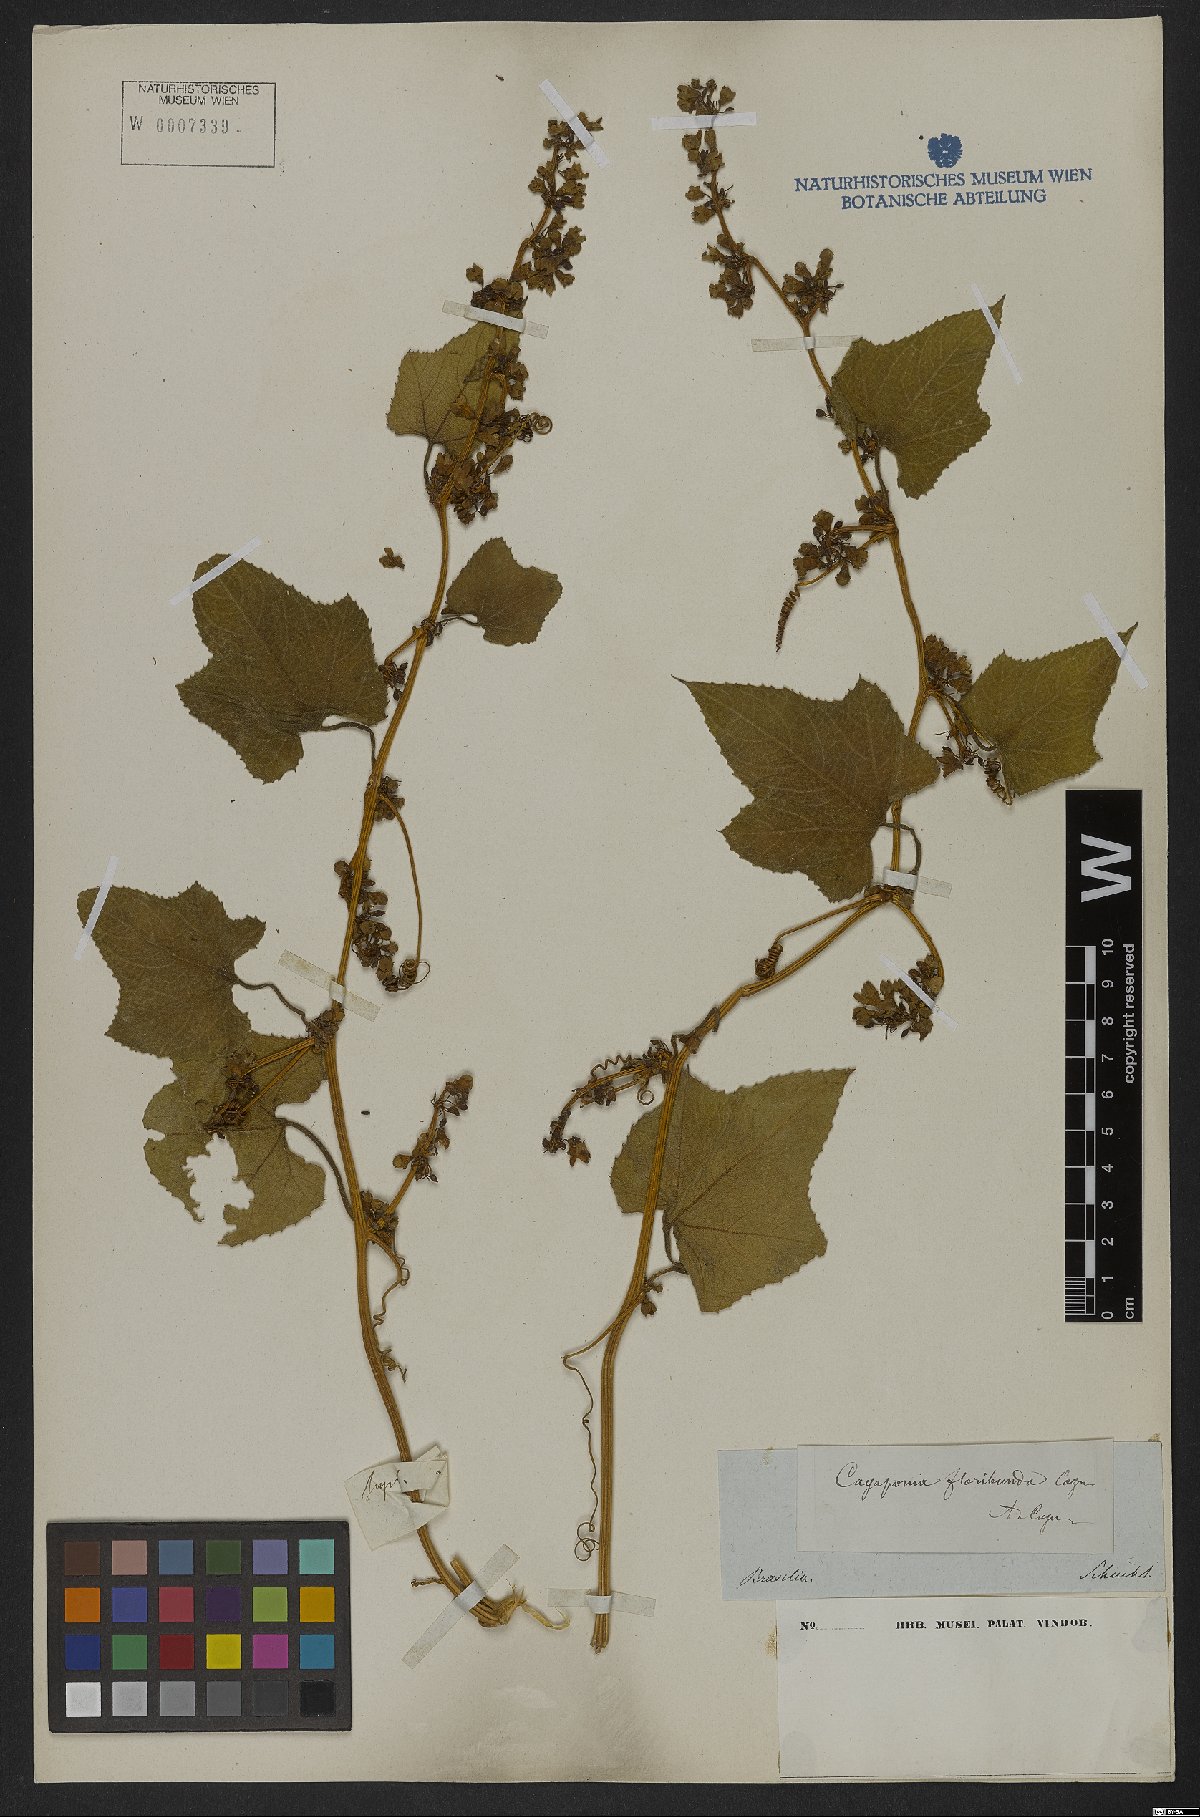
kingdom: Plantae
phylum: Tracheophyta
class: Magnoliopsida
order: Cucurbitales
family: Cucurbitaceae
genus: Cayaponia
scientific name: Cayaponia floribunda
